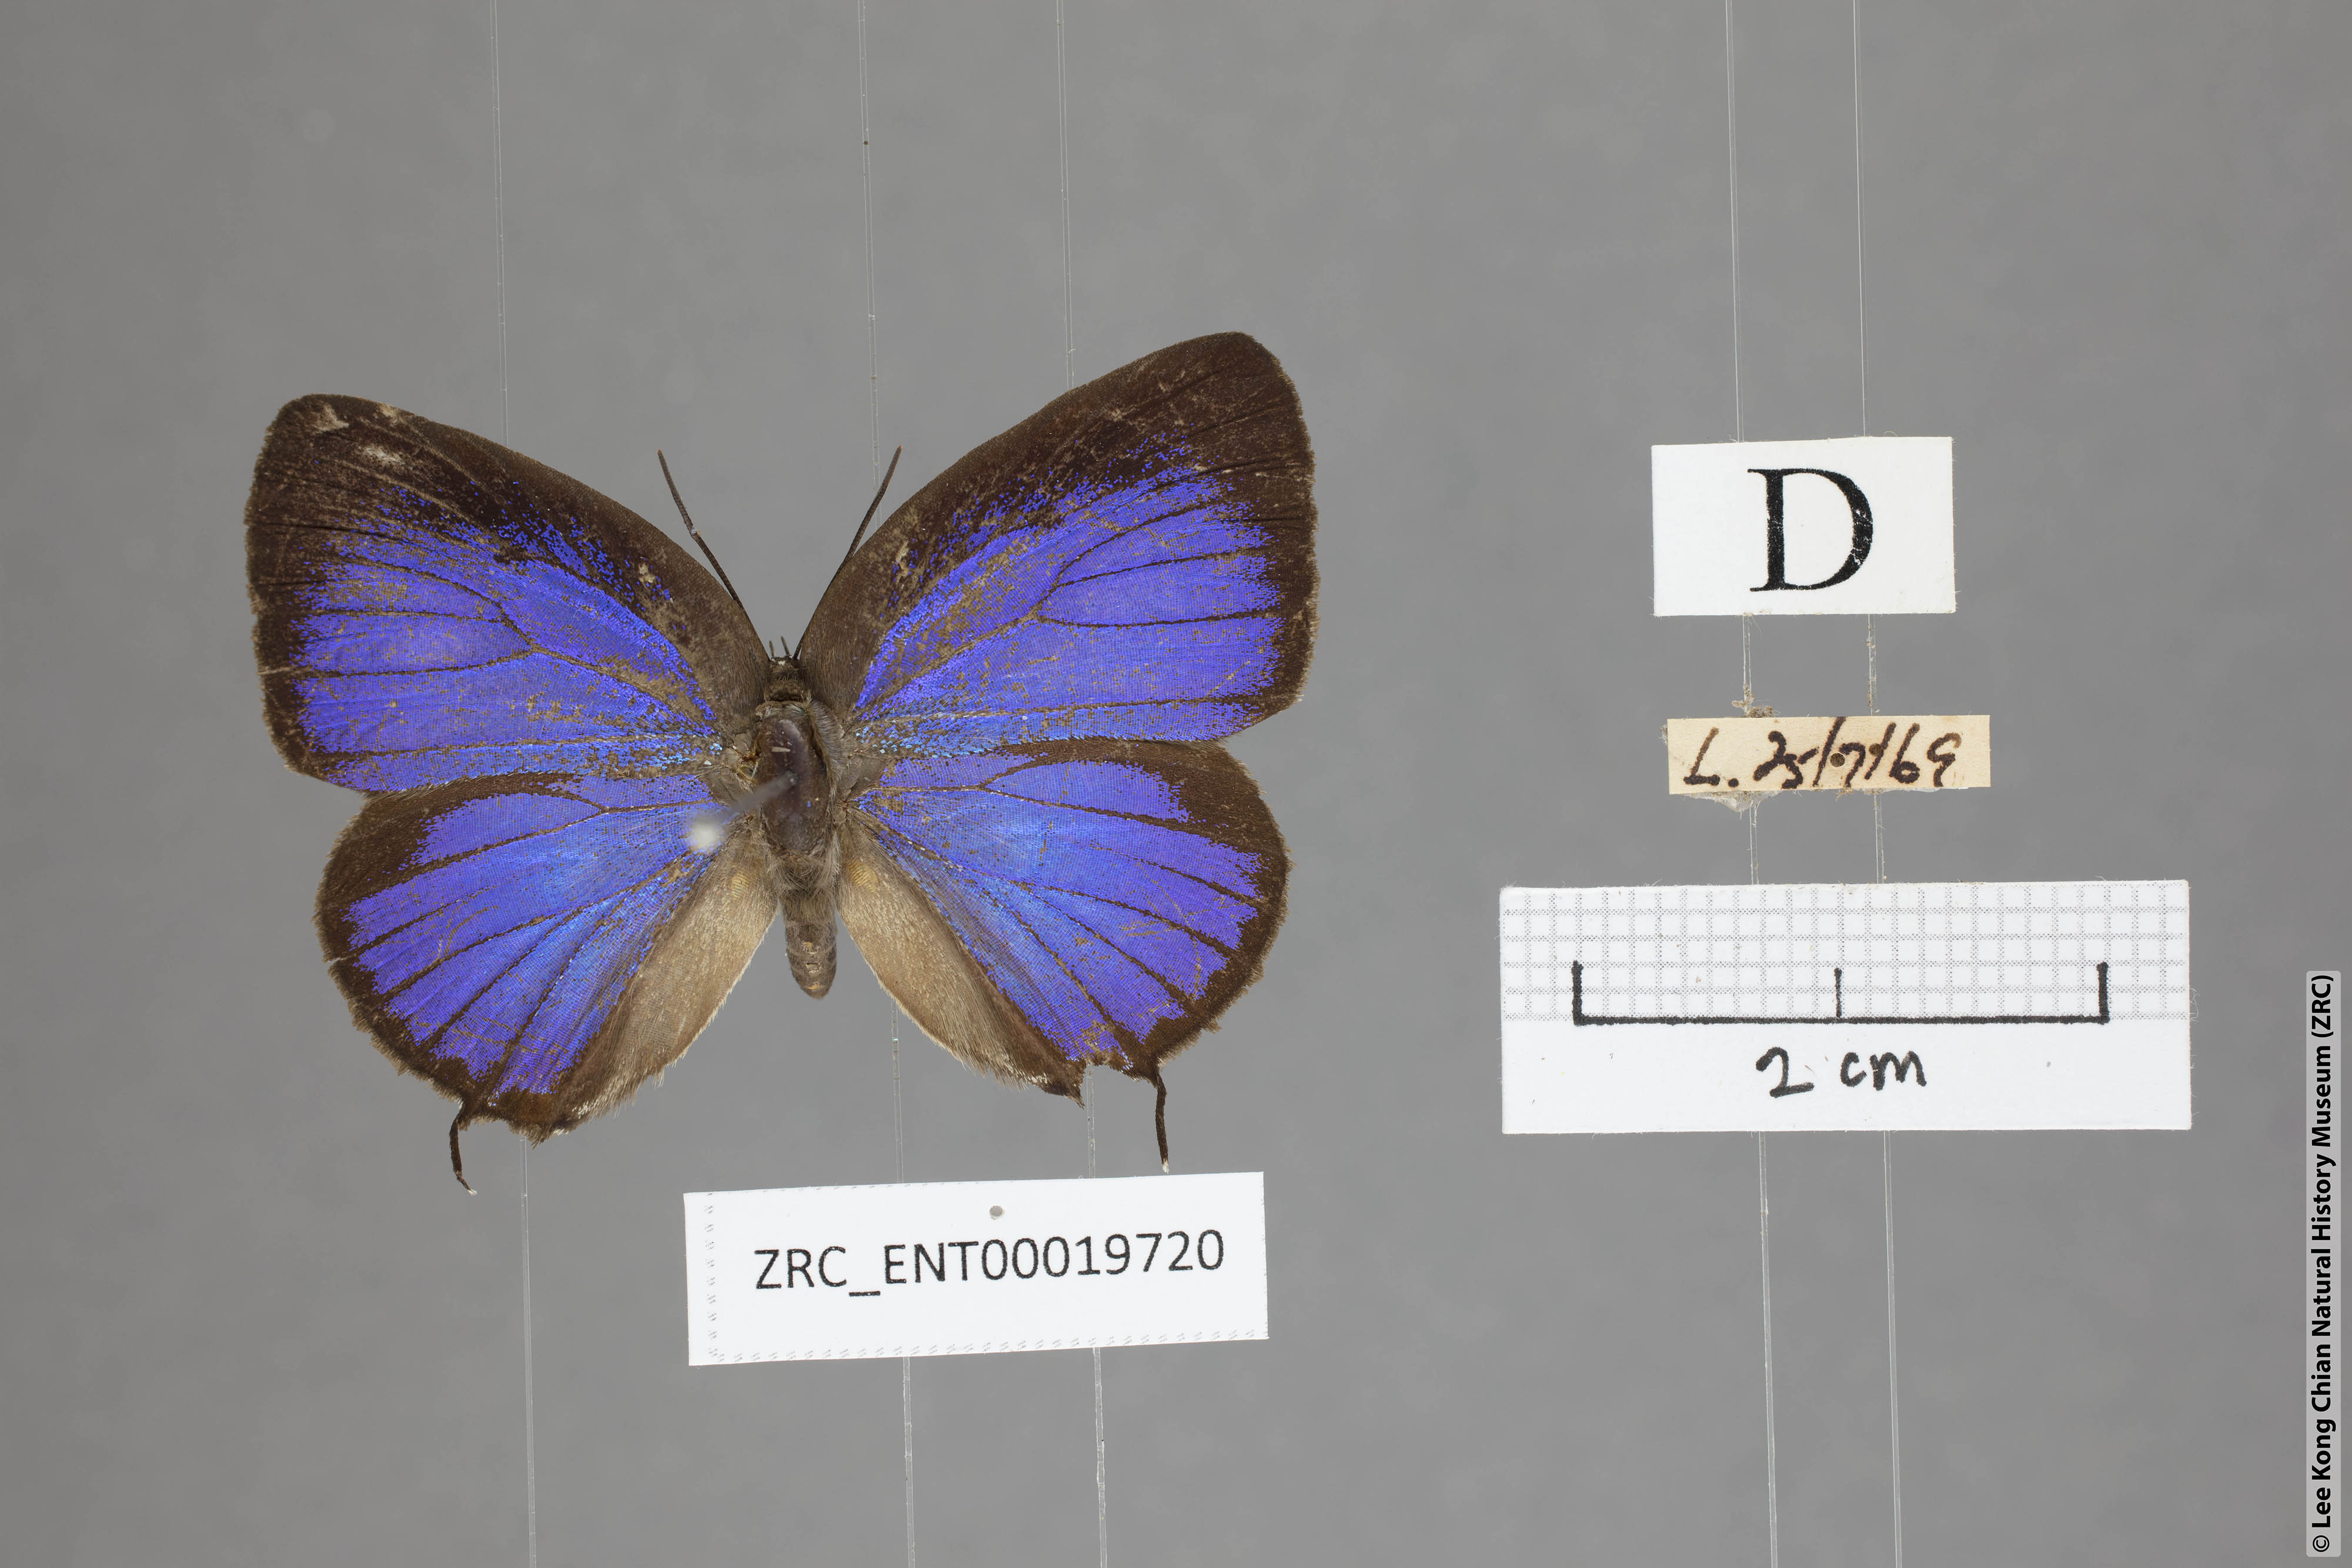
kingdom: Animalia
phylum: Arthropoda
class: Insecta
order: Lepidoptera
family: Lycaenidae
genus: Arhopala
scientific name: Arhopala myrzala
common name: Malayan oakblue
